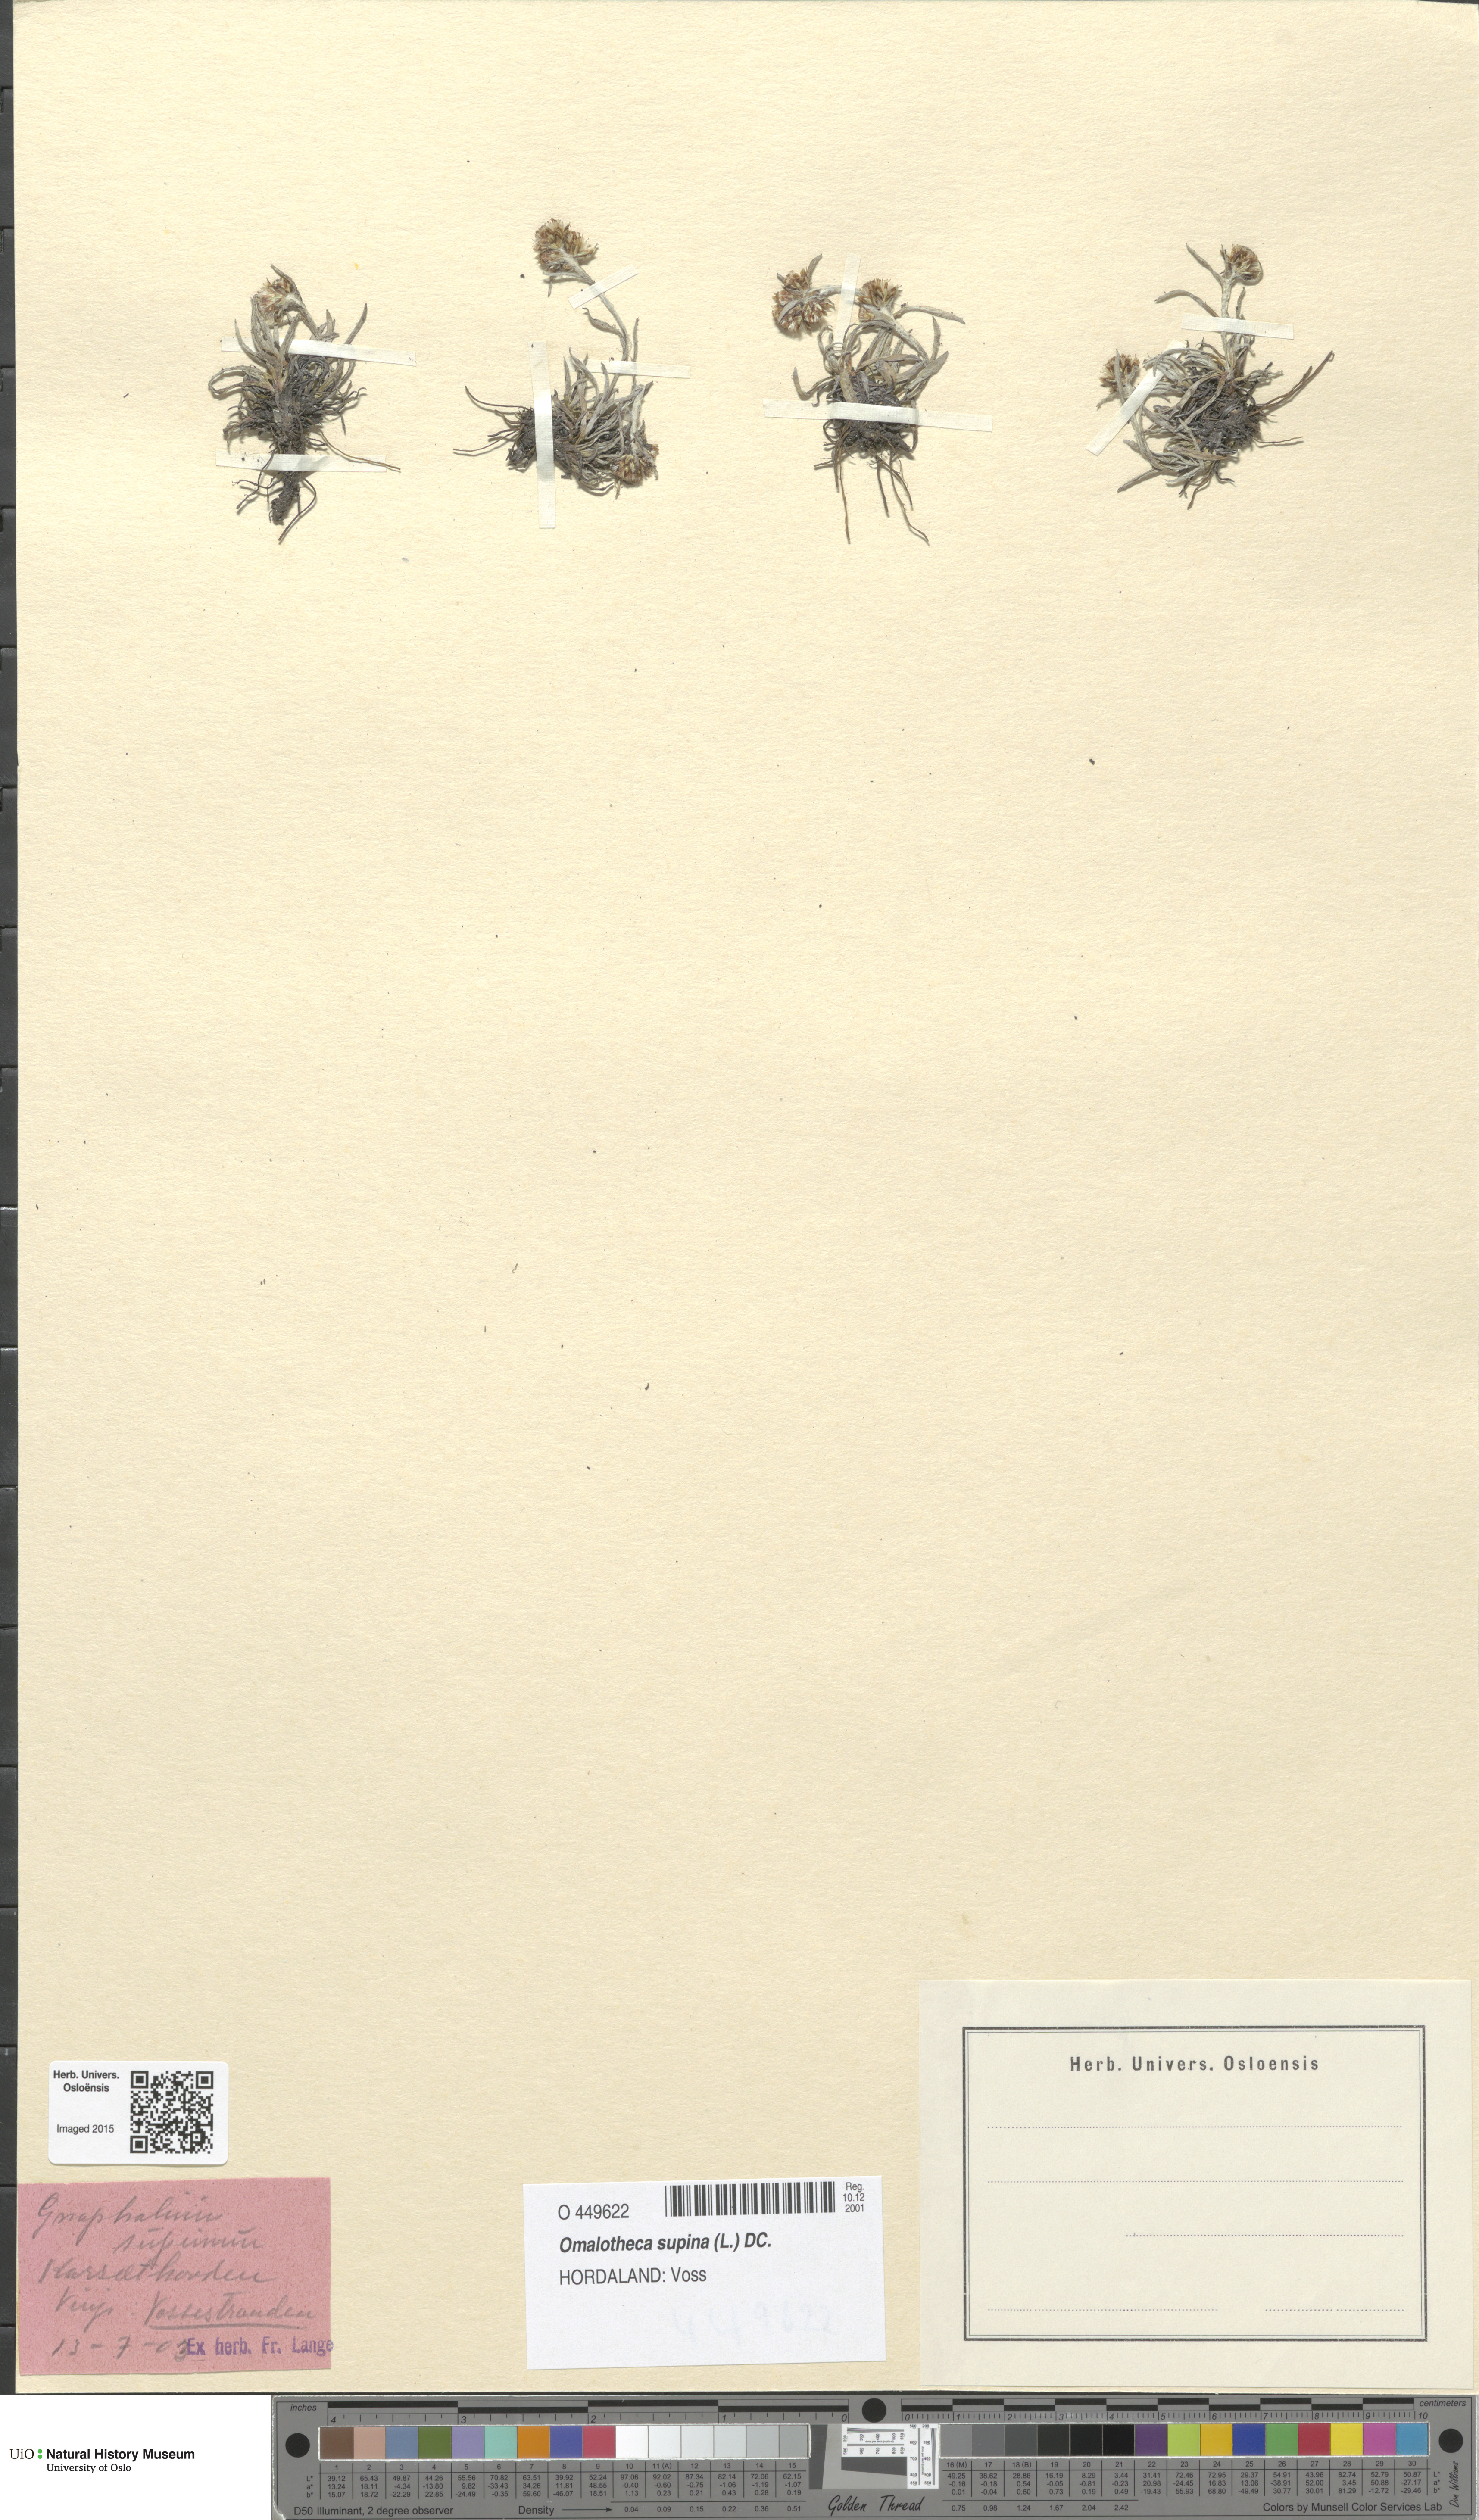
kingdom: Plantae
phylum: Tracheophyta
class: Magnoliopsida
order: Asterales
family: Asteraceae
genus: Omalotheca
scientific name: Omalotheca supina
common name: Alpine arctic-cudweed
